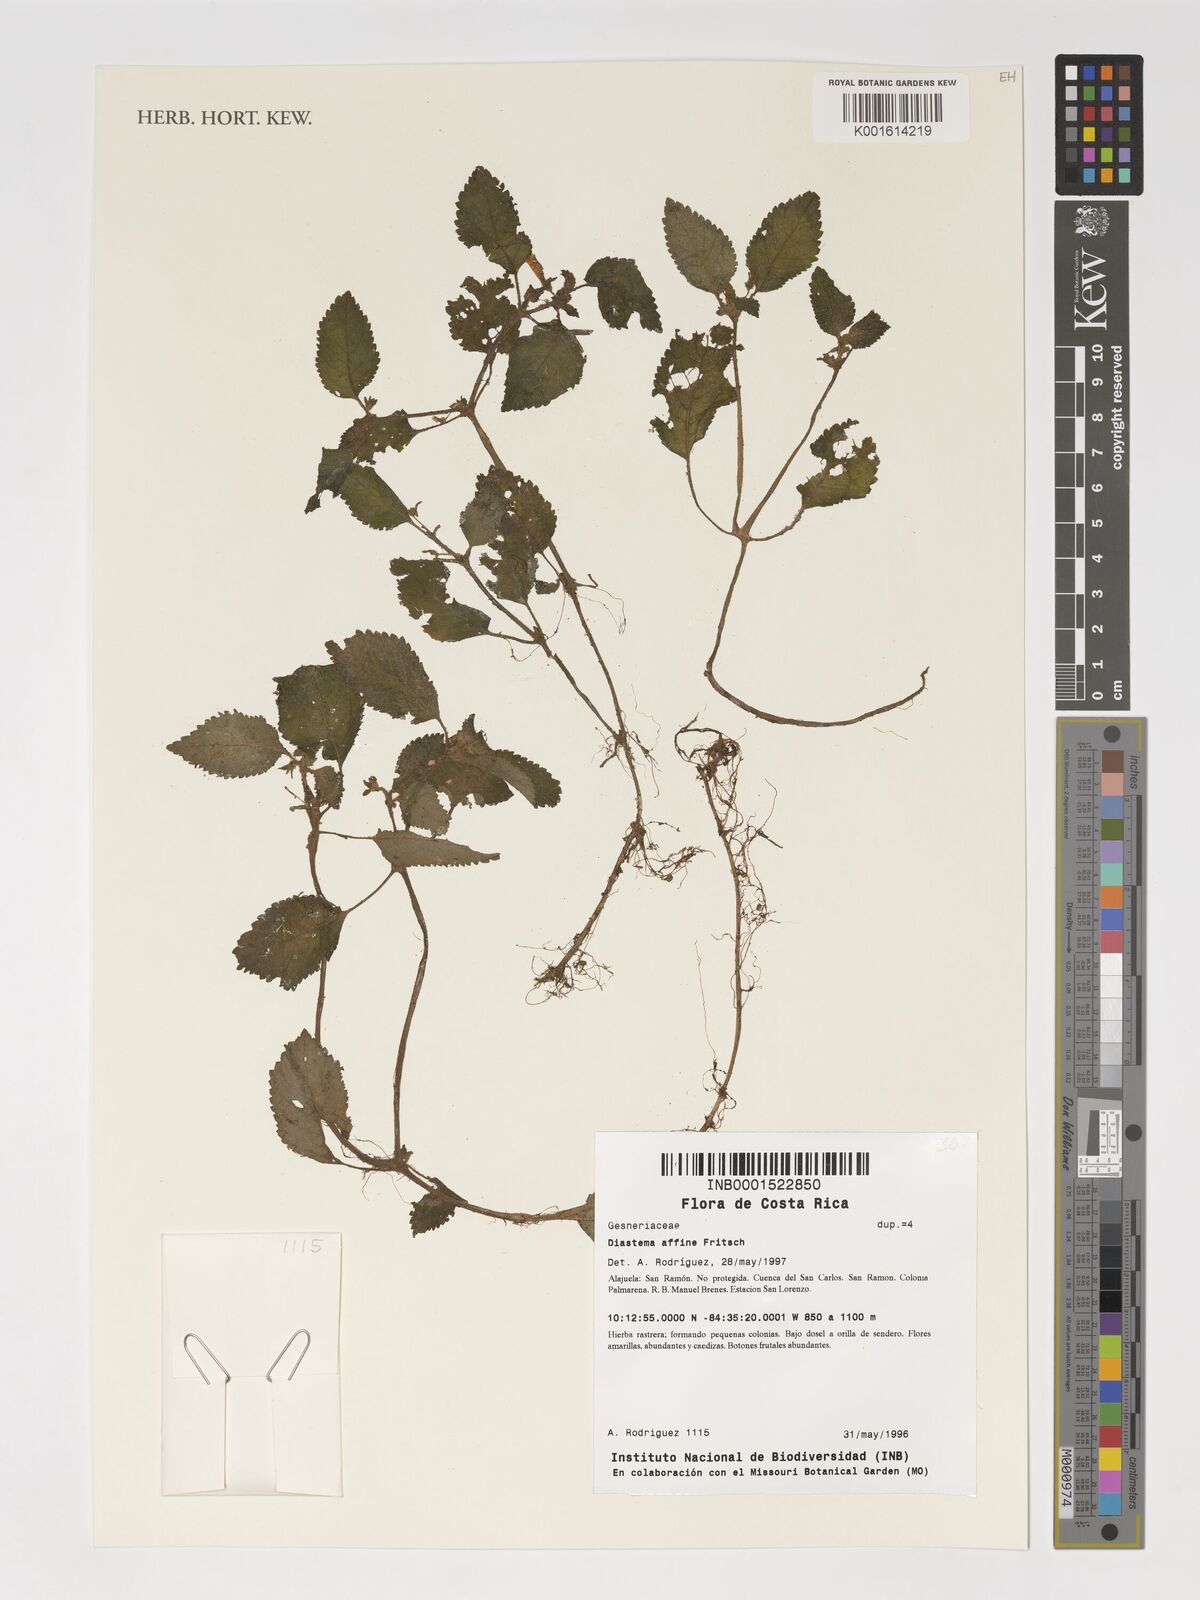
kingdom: Plantae
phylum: Tracheophyta
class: Magnoliopsida
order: Lamiales
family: Gesneriaceae
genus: Diastema
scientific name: Diastema affine
